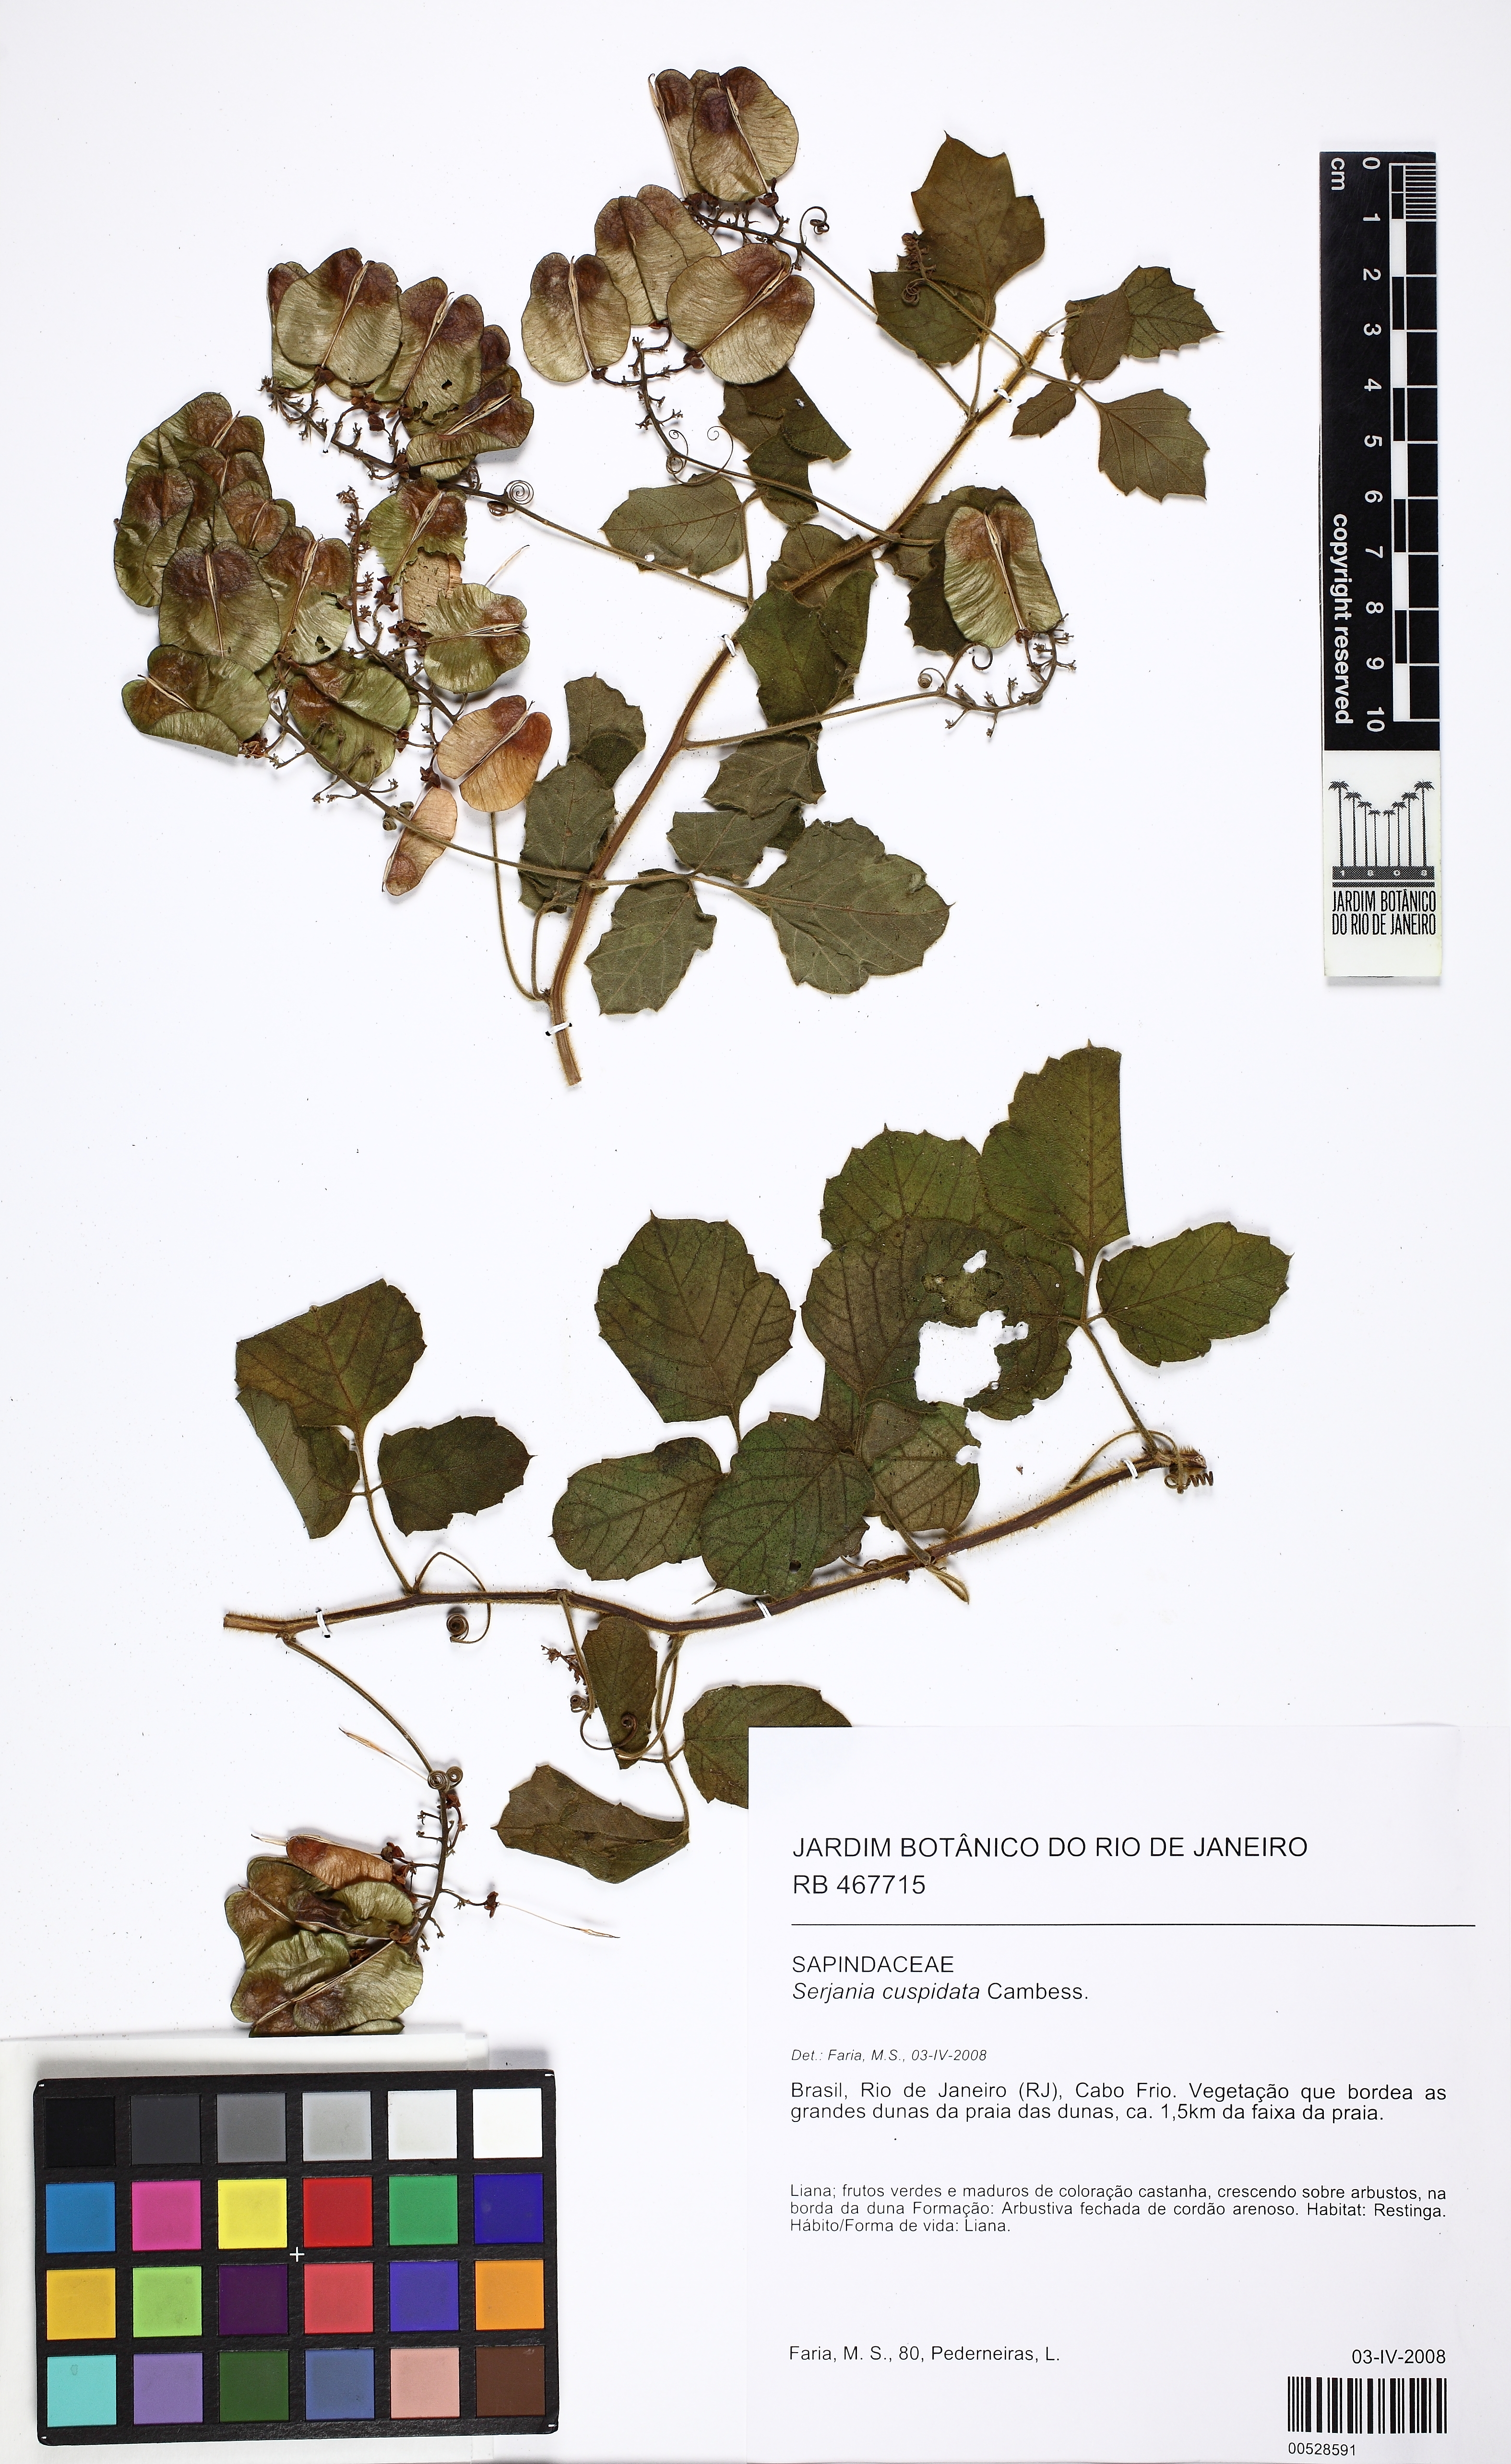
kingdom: Plantae
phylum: Tracheophyta
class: Magnoliopsida
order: Sapindales
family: Sapindaceae
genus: Serjania
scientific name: Serjania ferruginea
